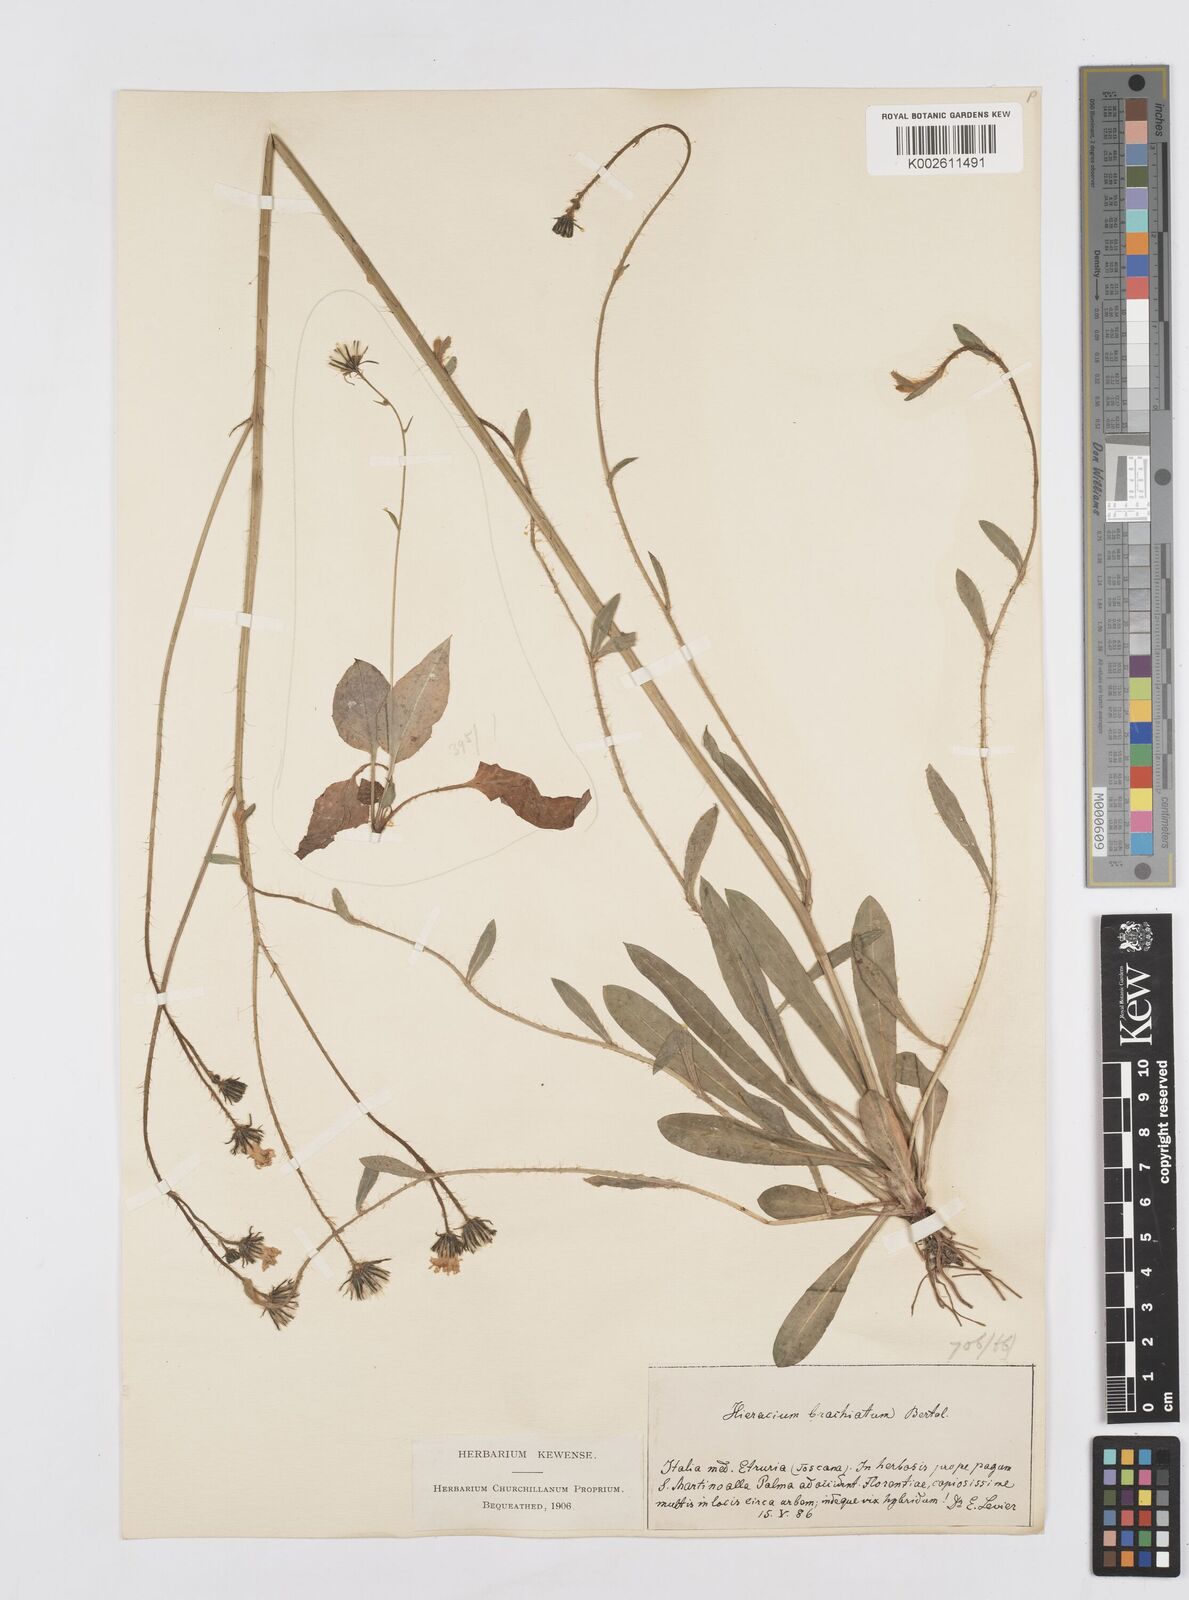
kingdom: Plantae
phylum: Tracheophyta
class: Magnoliopsida
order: Asterales
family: Asteraceae
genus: Pilosella
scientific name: Pilosella acutifolia
